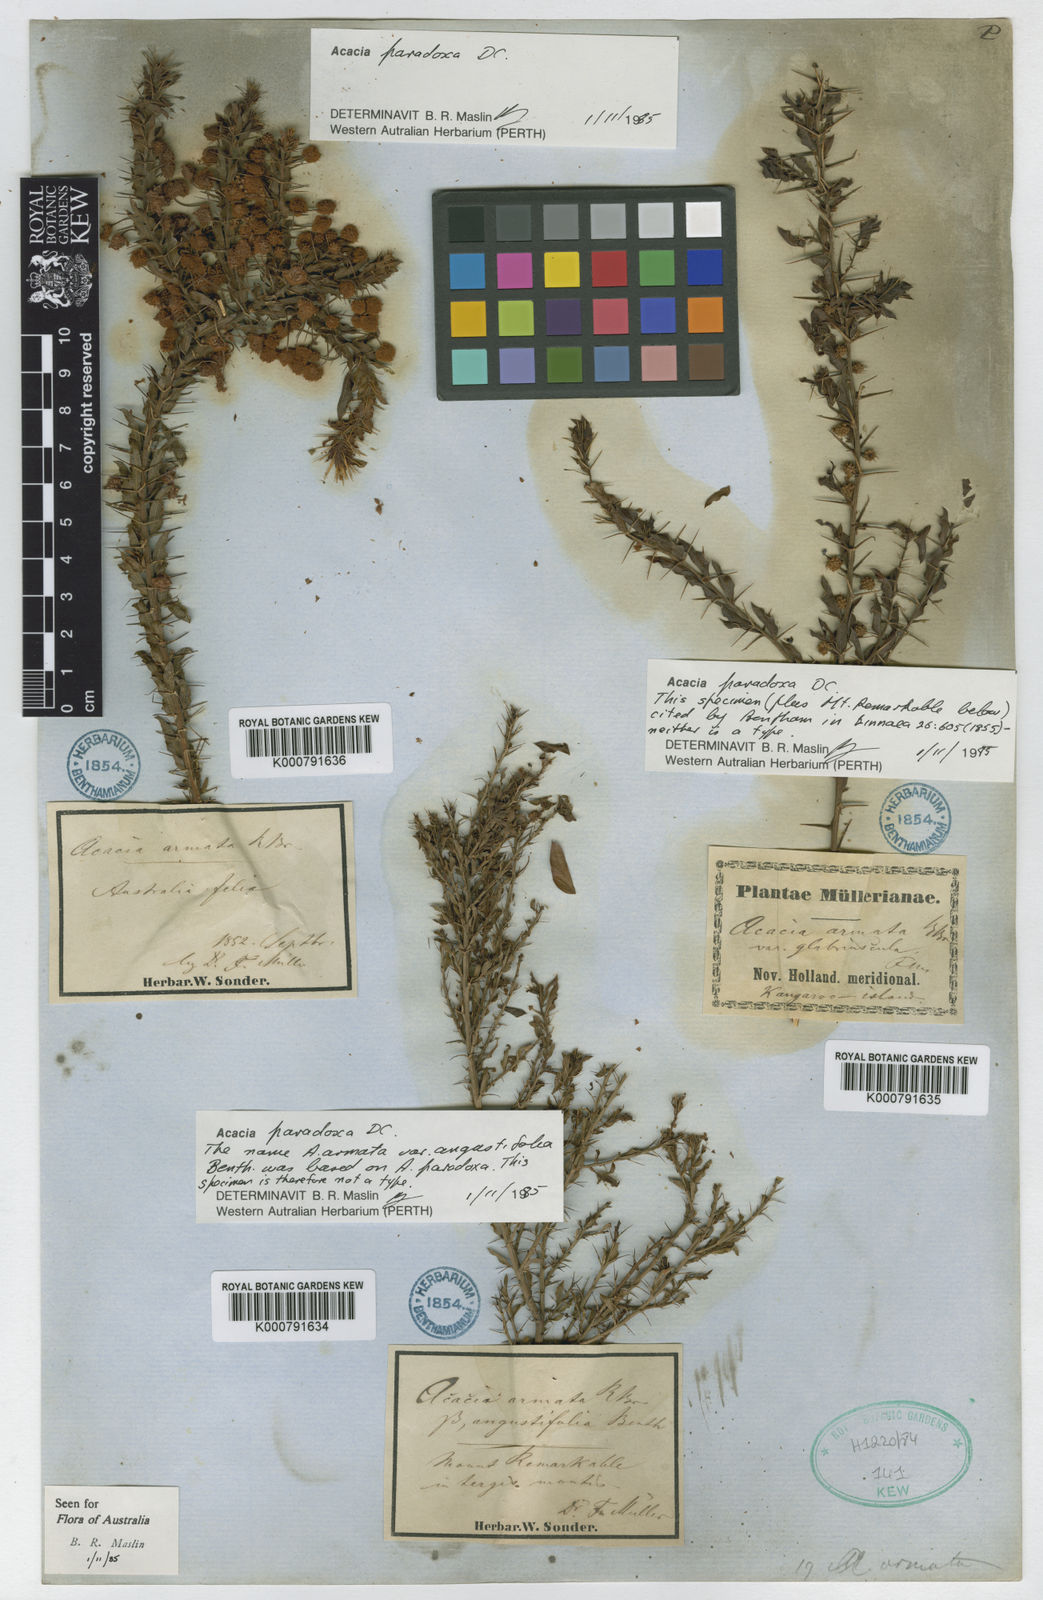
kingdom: Plantae
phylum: Tracheophyta
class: Magnoliopsida
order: Fabales
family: Fabaceae
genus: Acacia
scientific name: Acacia paradoxa
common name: Paradox acacia
